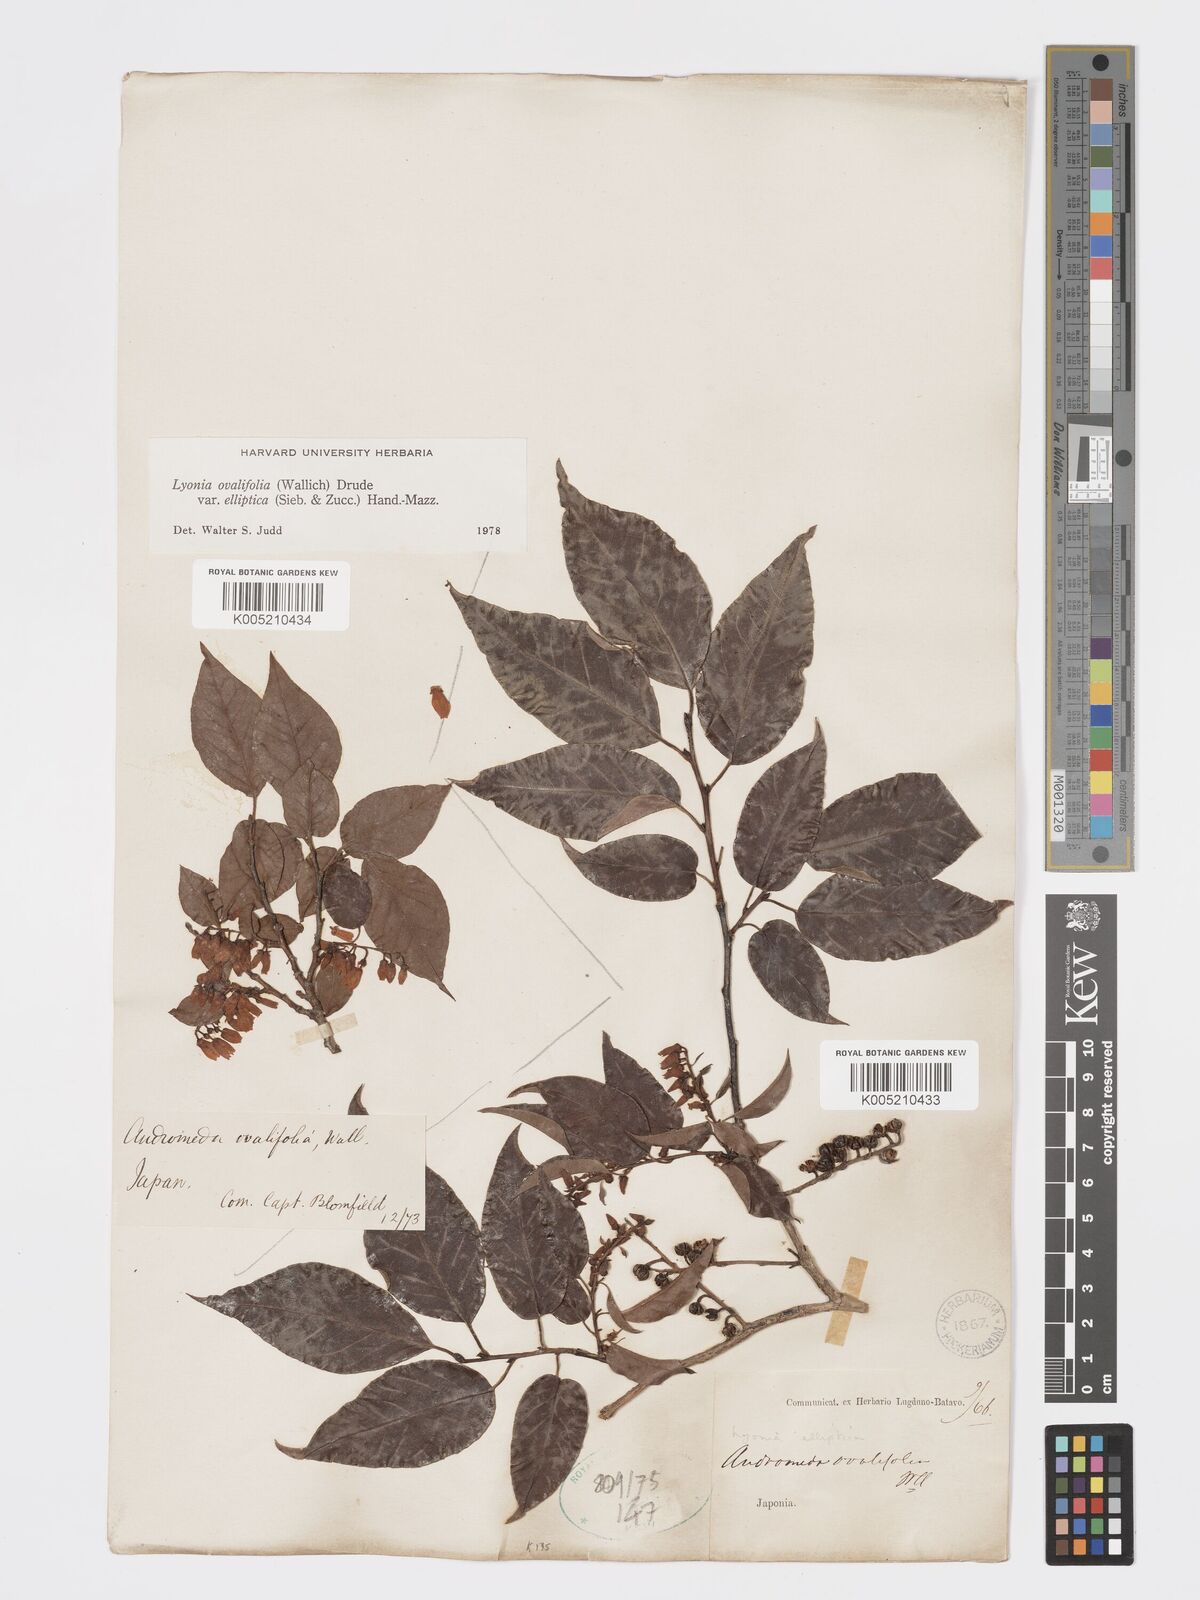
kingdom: Plantae
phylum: Tracheophyta
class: Magnoliopsida
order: Ericales
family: Ericaceae
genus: Lyonia
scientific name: Lyonia elliptica
